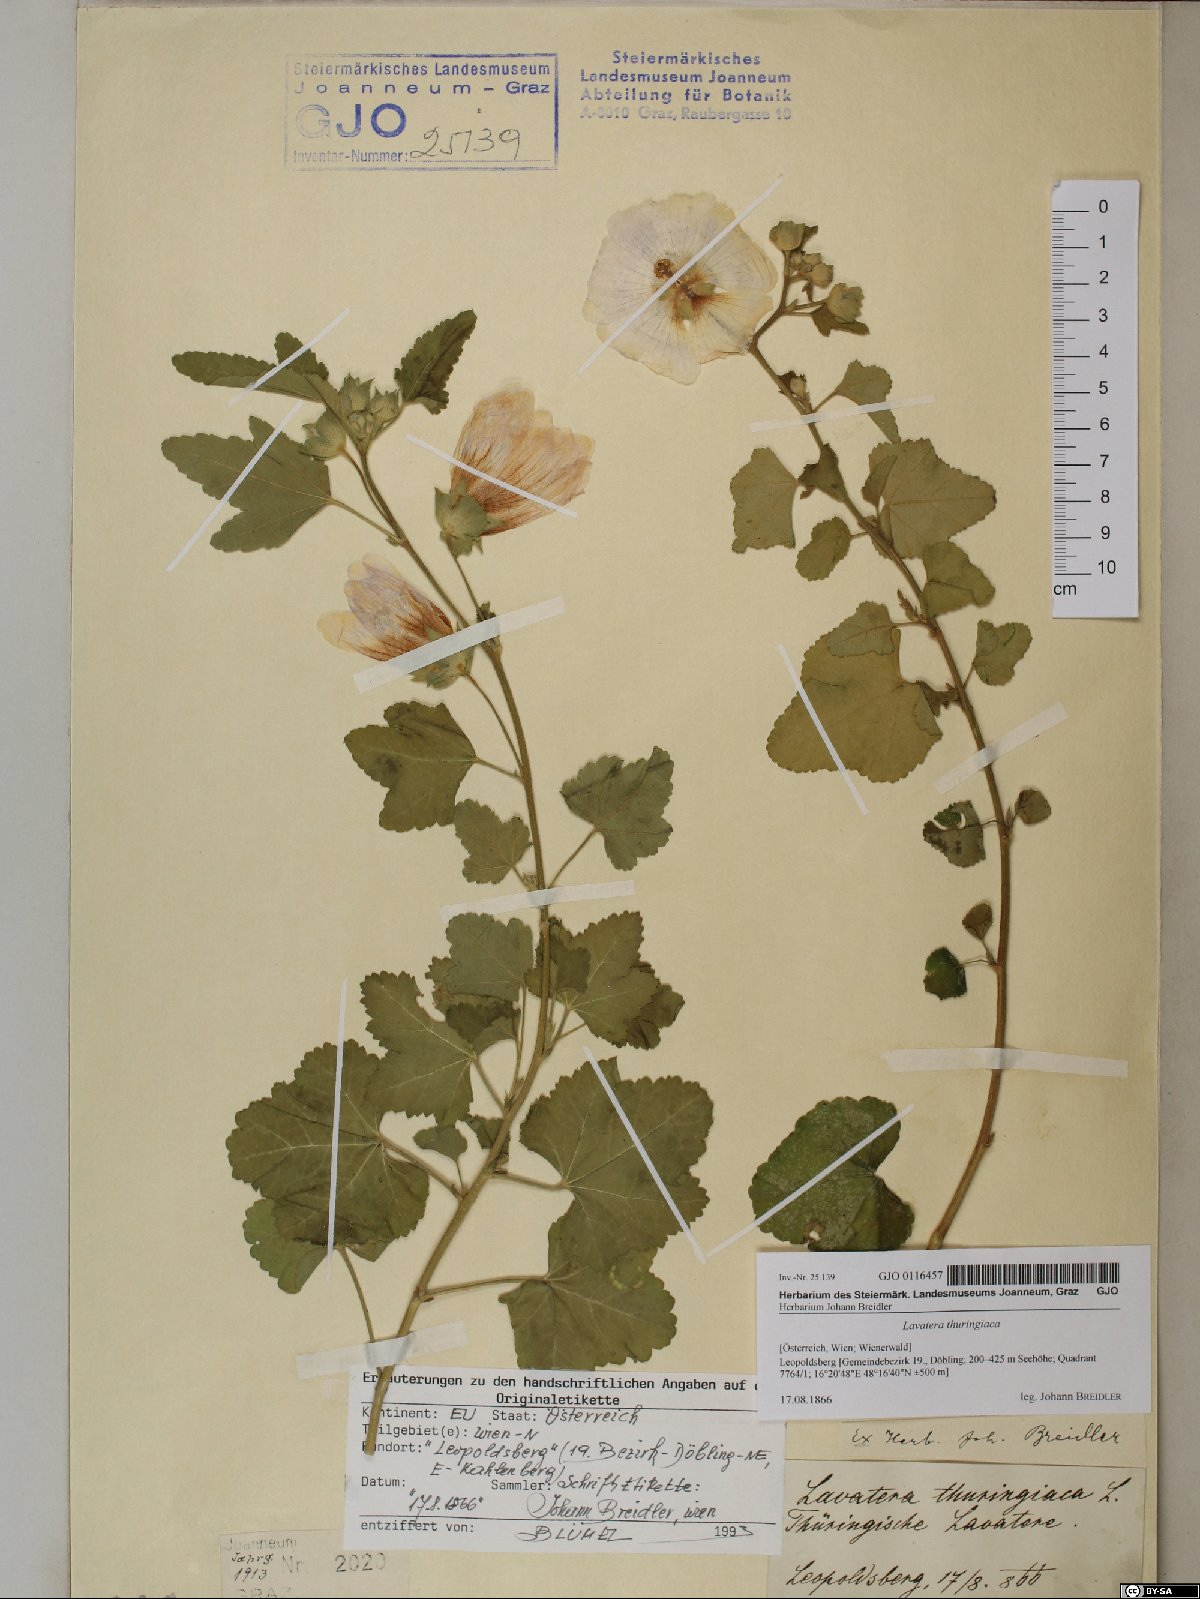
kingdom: Plantae
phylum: Tracheophyta
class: Magnoliopsida
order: Malvales
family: Malvaceae
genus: Malva
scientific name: Malva thuringiaca
